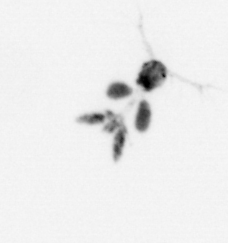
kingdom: Animalia
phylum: Arthropoda
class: Copepoda
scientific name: Copepoda
